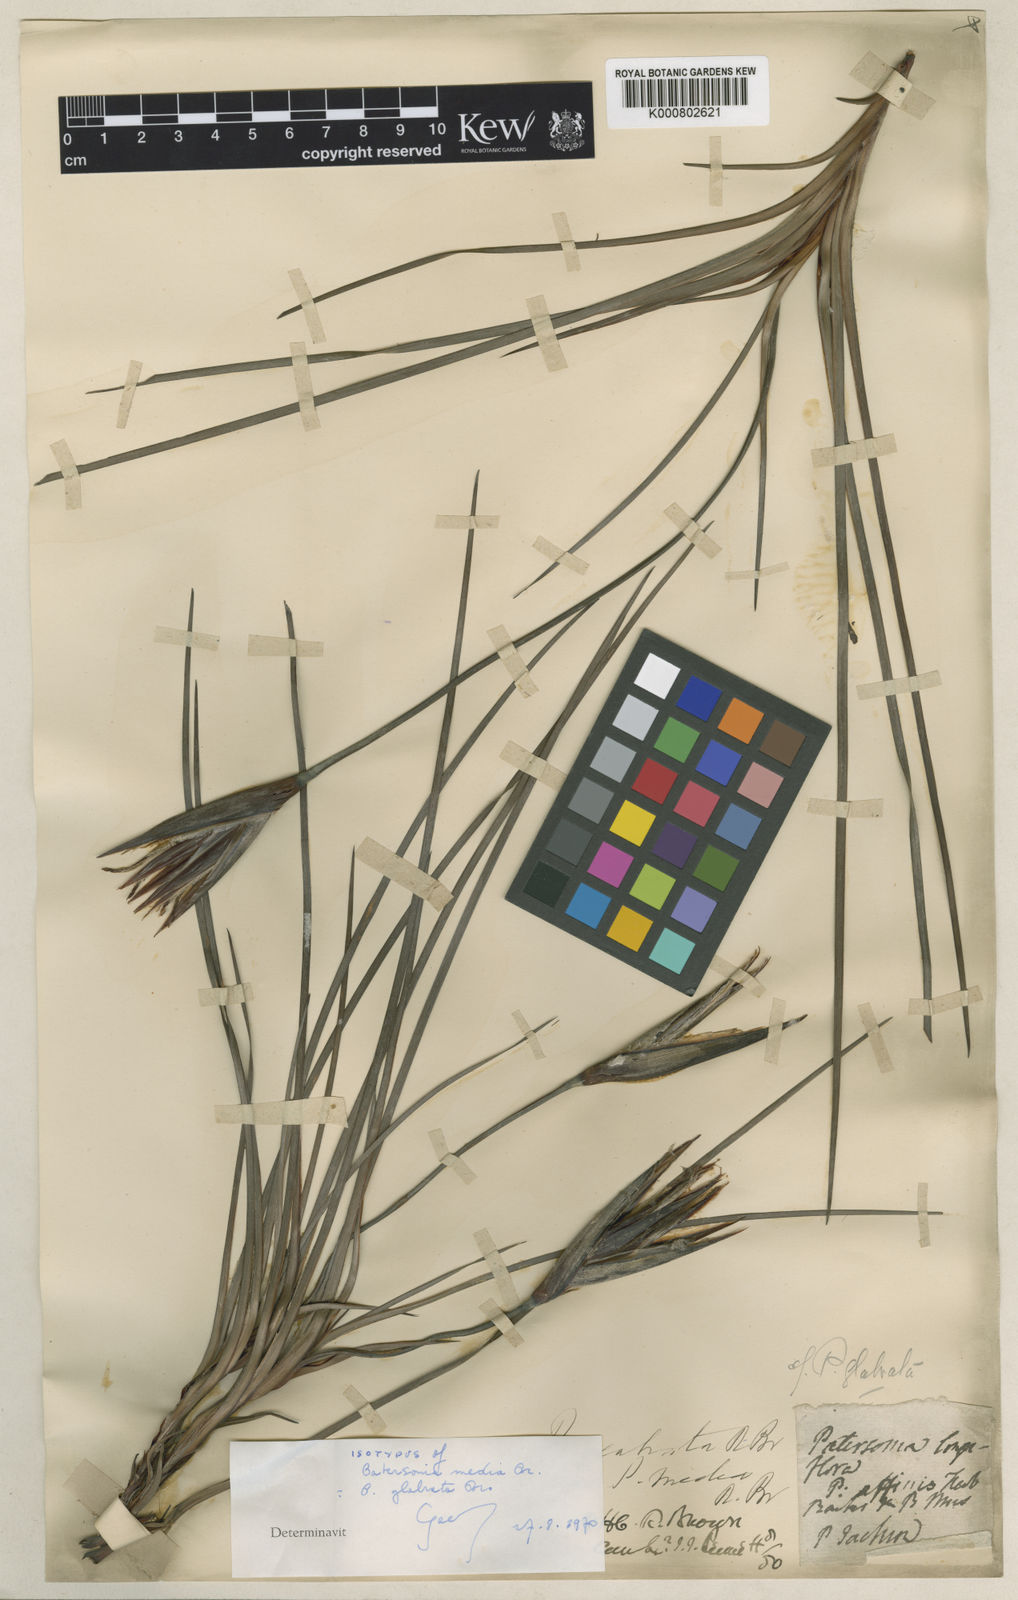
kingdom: Plantae
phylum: Tracheophyta
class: Liliopsida
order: Asparagales
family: Iridaceae
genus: Patersonia
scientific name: Patersonia glabrata
